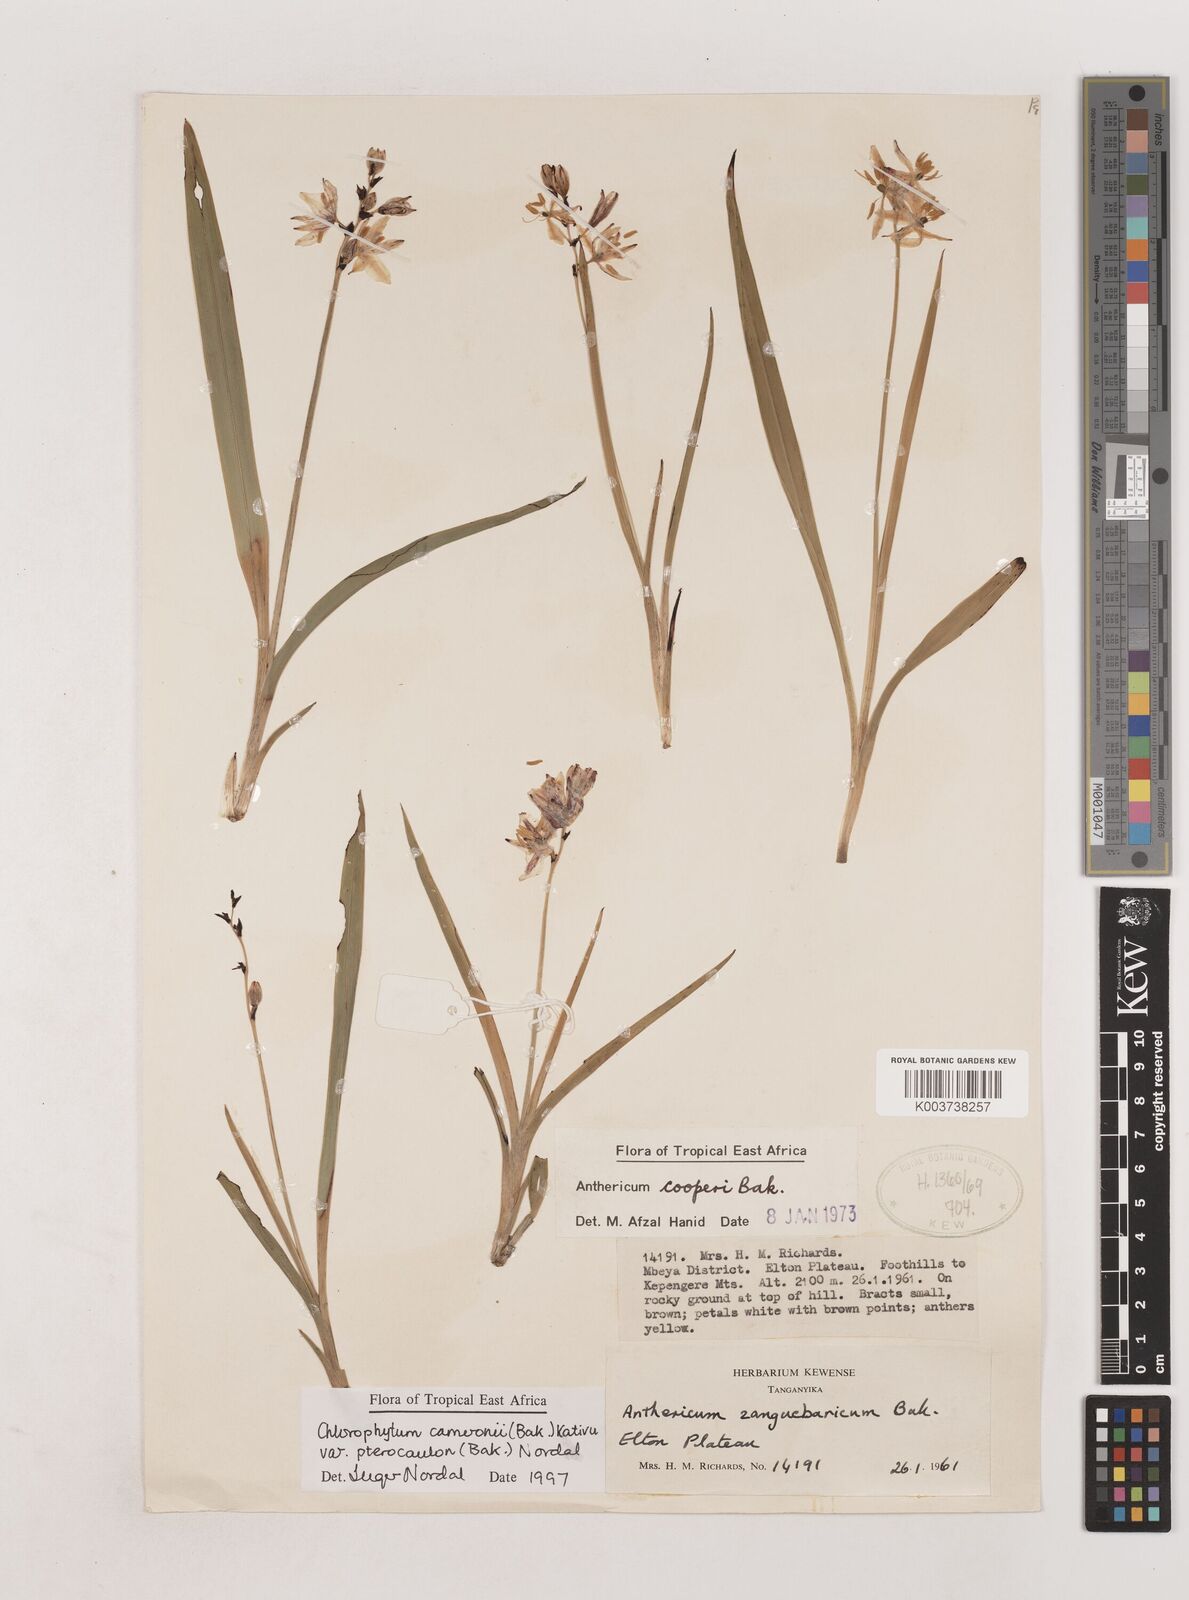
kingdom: Plantae
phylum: Tracheophyta
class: Liliopsida
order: Asparagales
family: Asparagaceae
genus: Chlorophytum
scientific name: Chlorophytum cameronii
